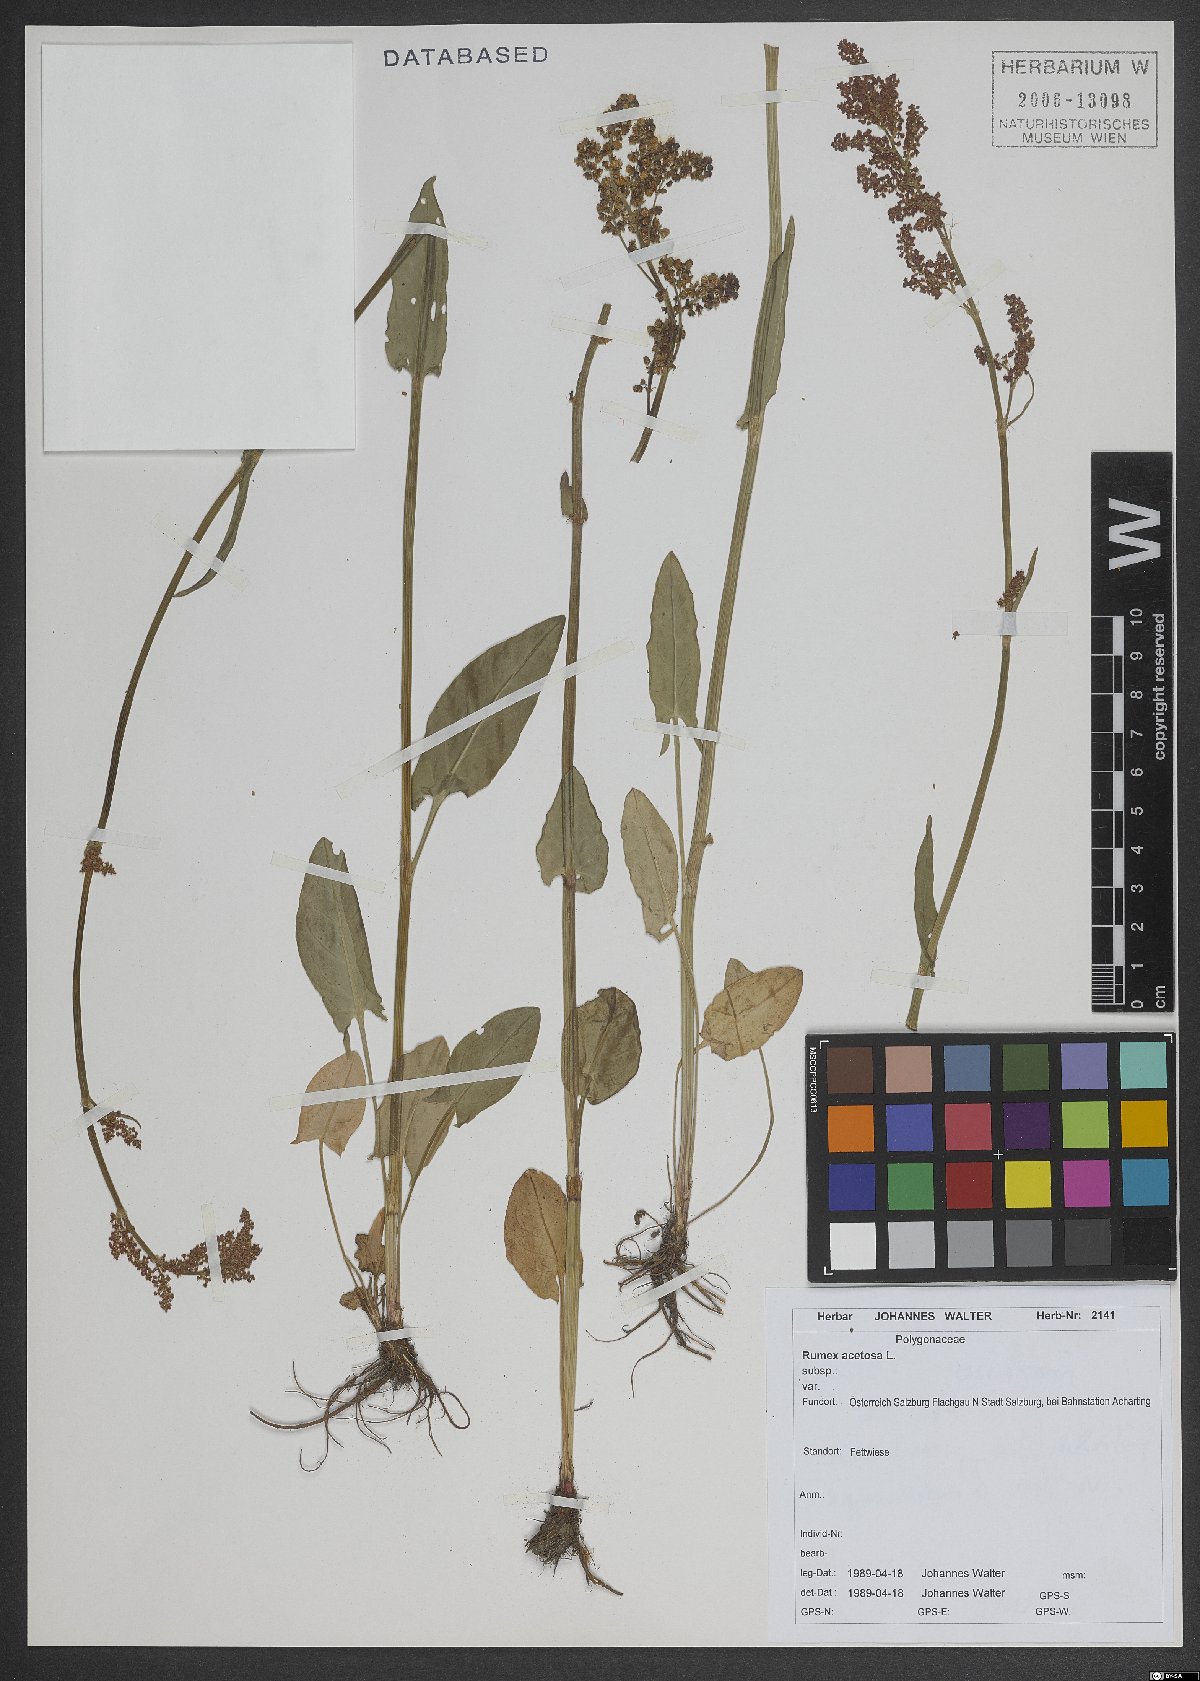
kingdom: Plantae
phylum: Tracheophyta
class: Magnoliopsida
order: Caryophyllales
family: Polygonaceae
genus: Rumex
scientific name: Rumex acetosa
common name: Garden sorrel
